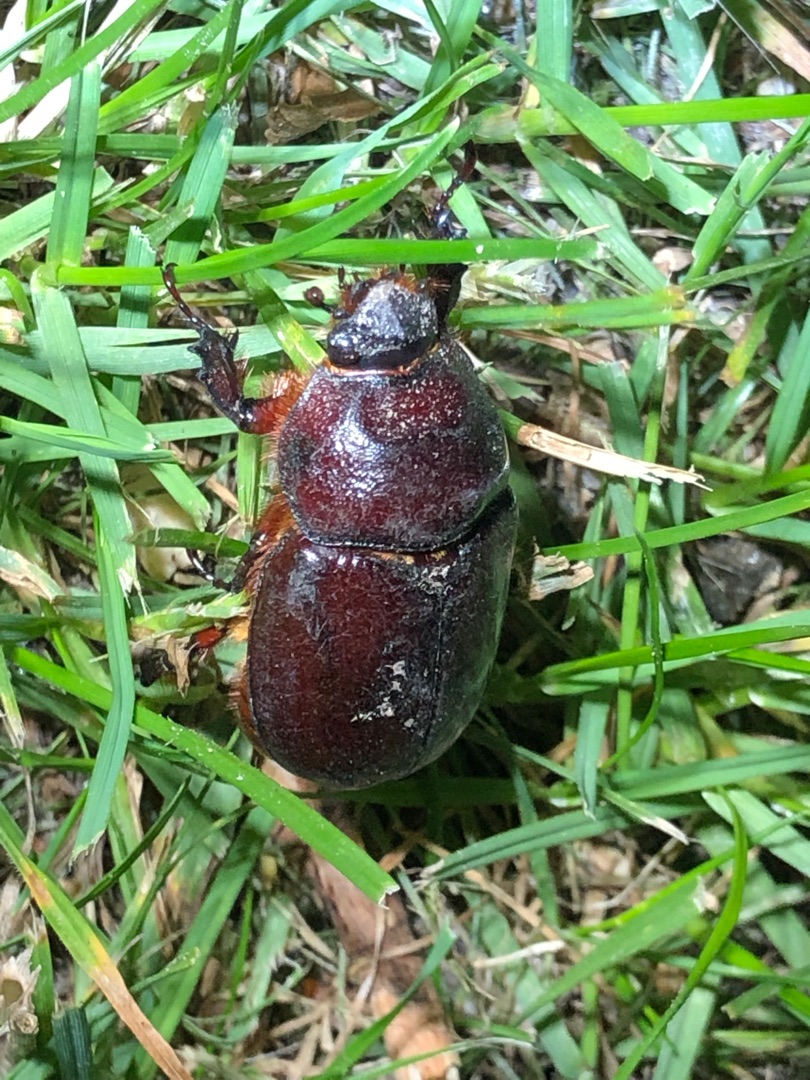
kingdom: Animalia
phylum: Arthropoda
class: Insecta
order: Coleoptera
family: Scarabaeidae
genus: Oryctes
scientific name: Oryctes nasicornis
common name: Næsehornsbille
